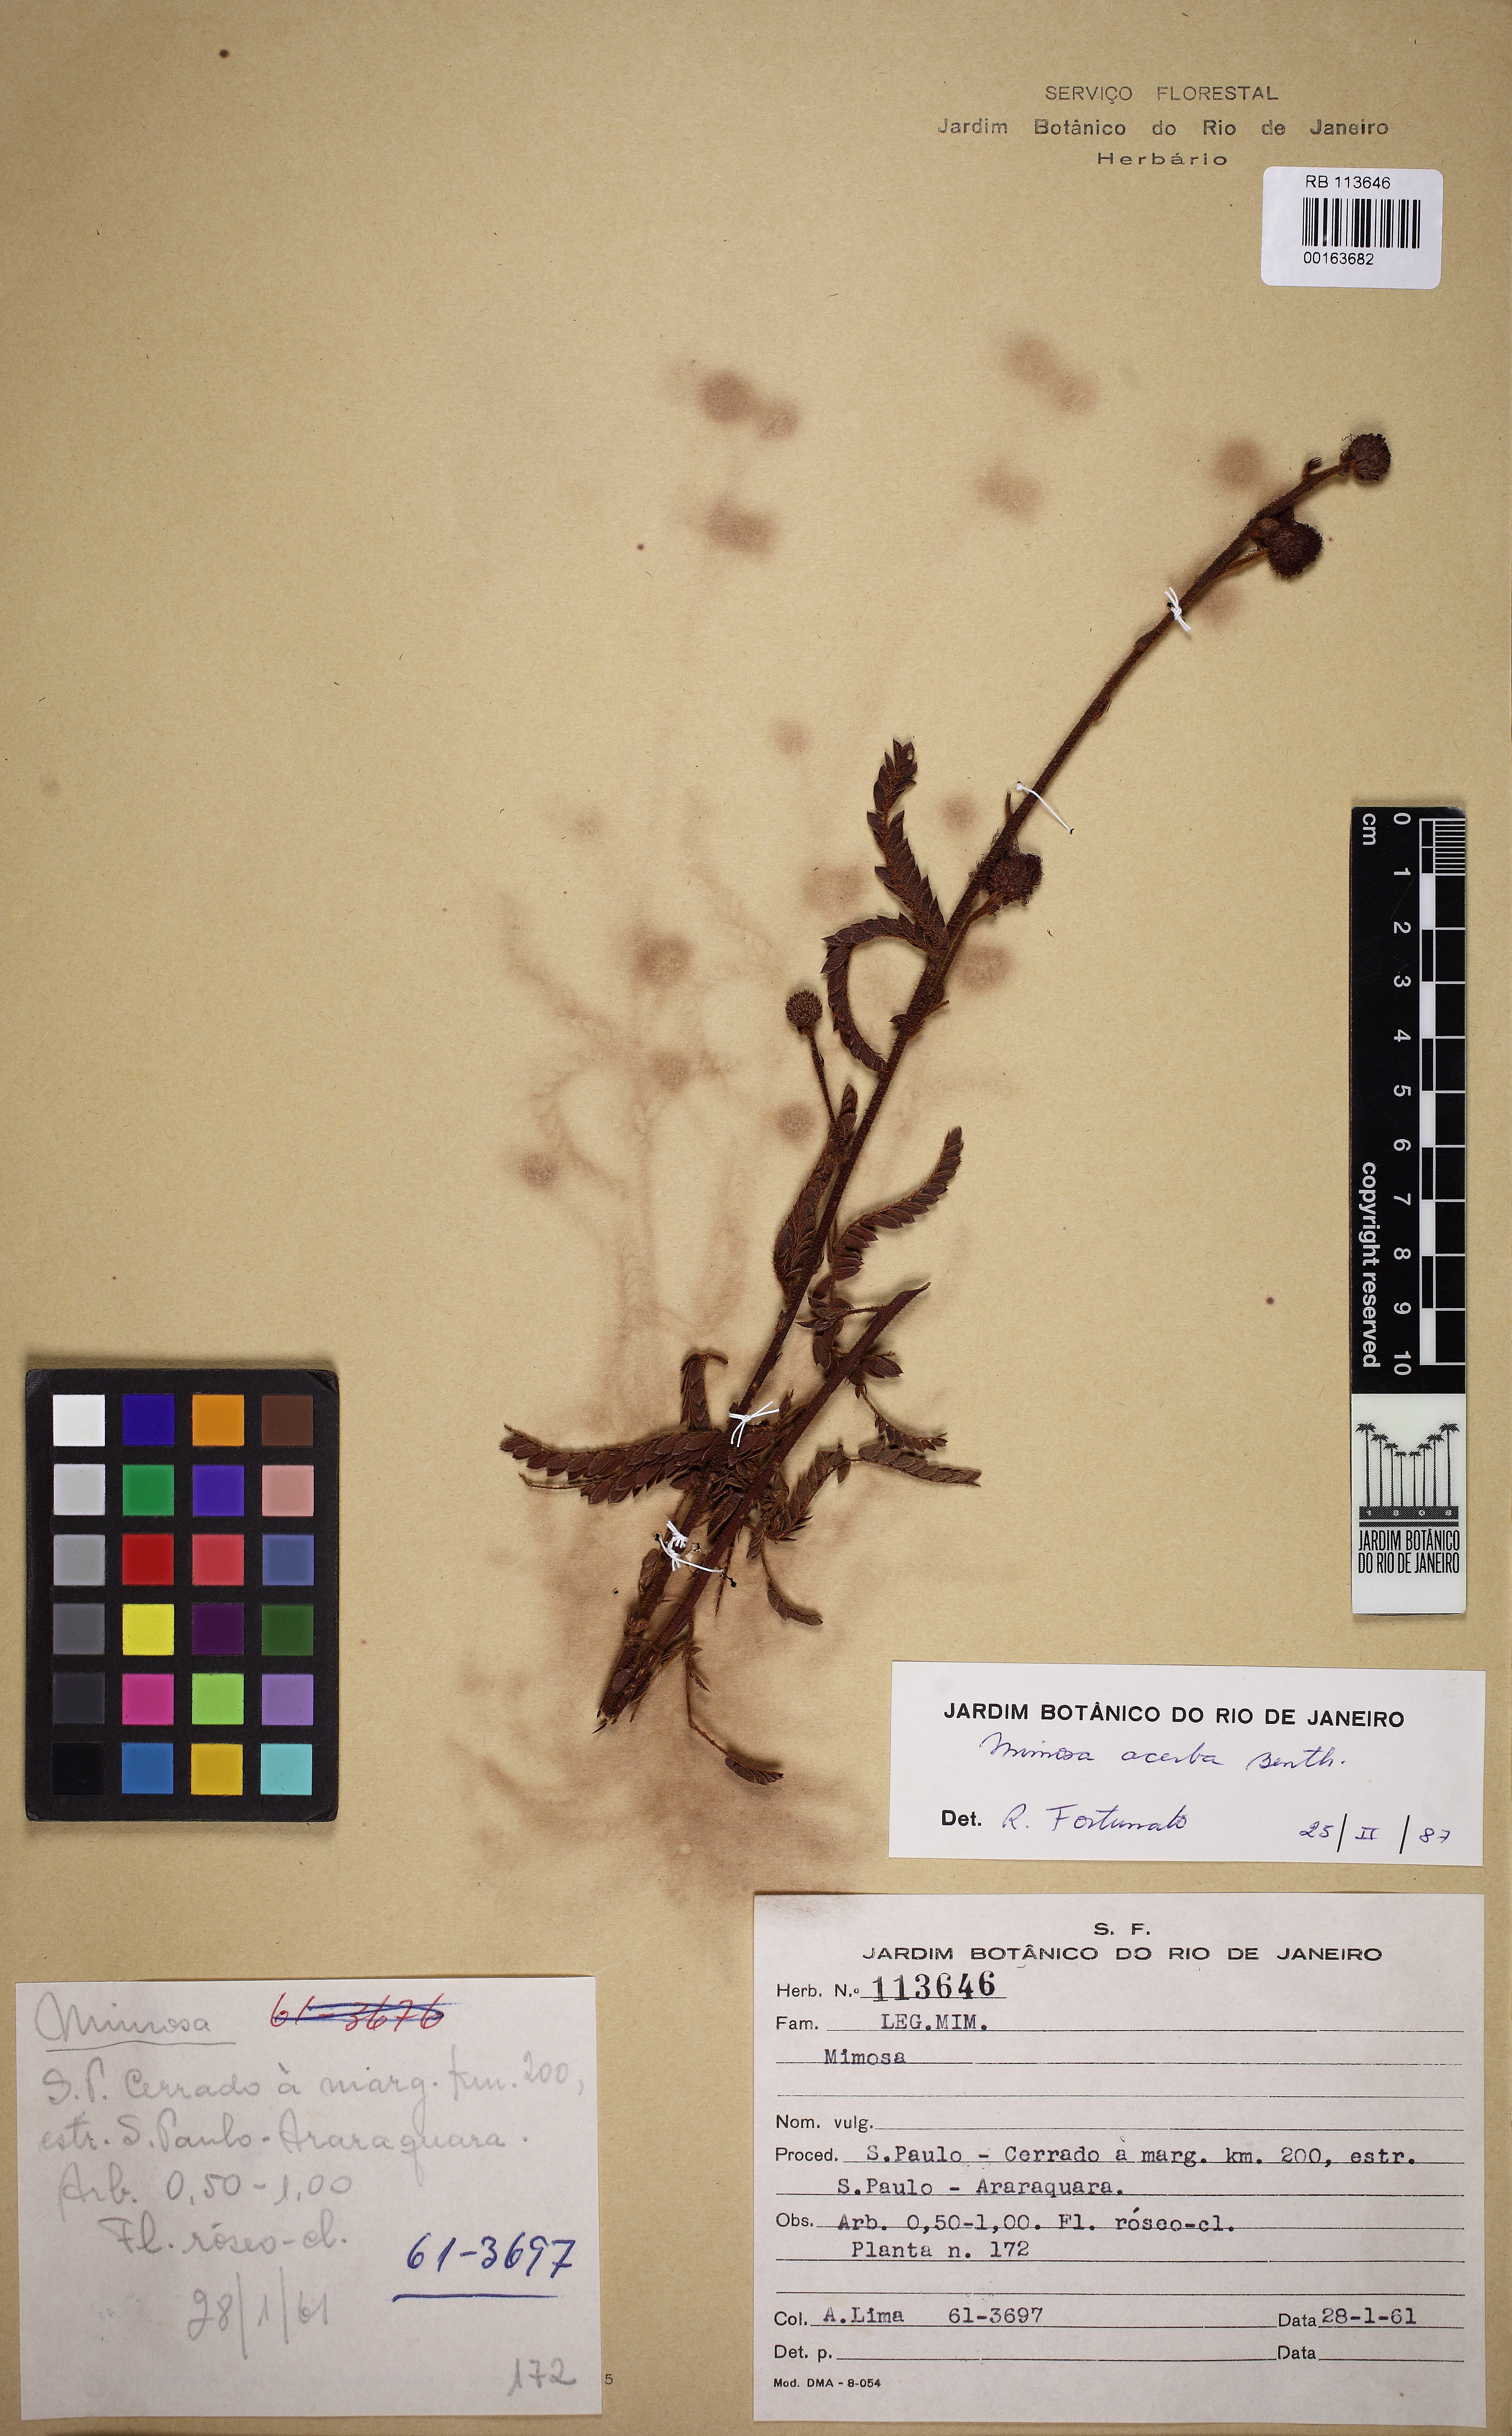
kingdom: Plantae
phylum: Tracheophyta
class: Magnoliopsida
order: Fabales
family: Fabaceae
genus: Mimosa
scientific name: Mimosa dolens
